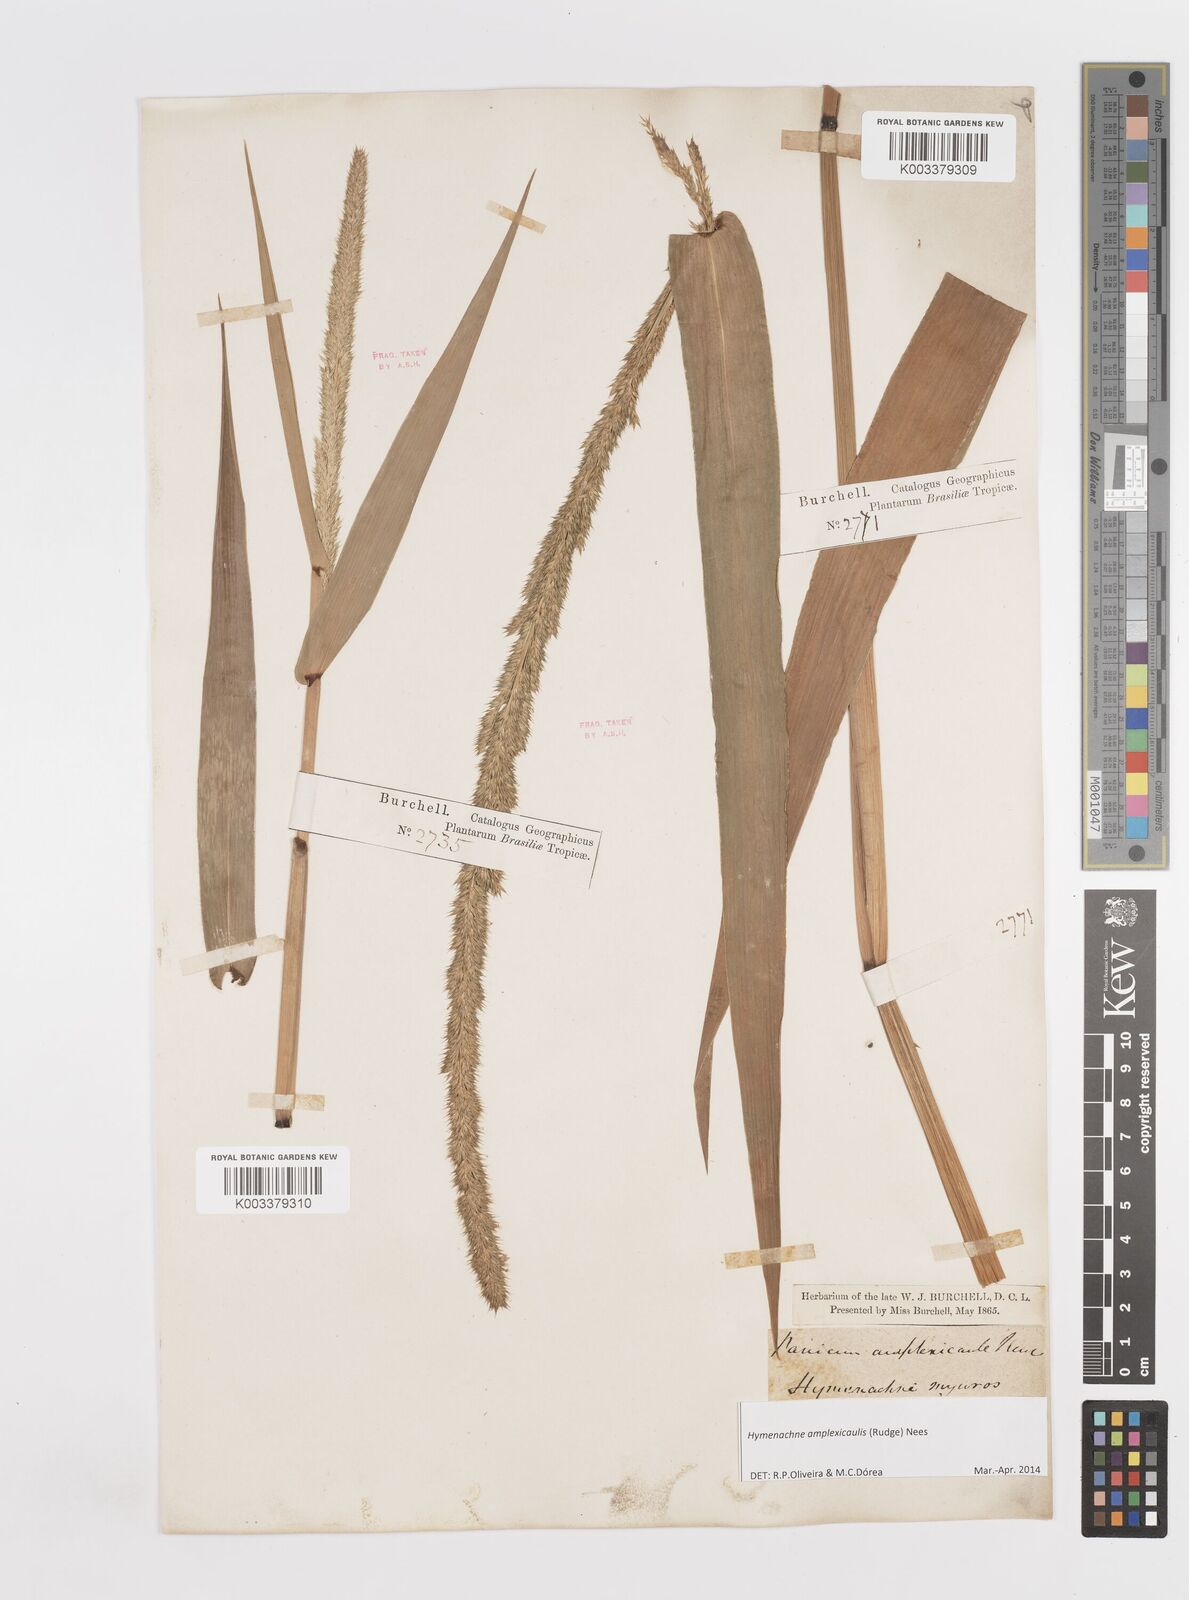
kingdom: Plantae
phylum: Tracheophyta
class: Liliopsida
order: Poales
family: Poaceae
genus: Hymenachne
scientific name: Hymenachne amplexicaulis
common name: Olive hymenachne
